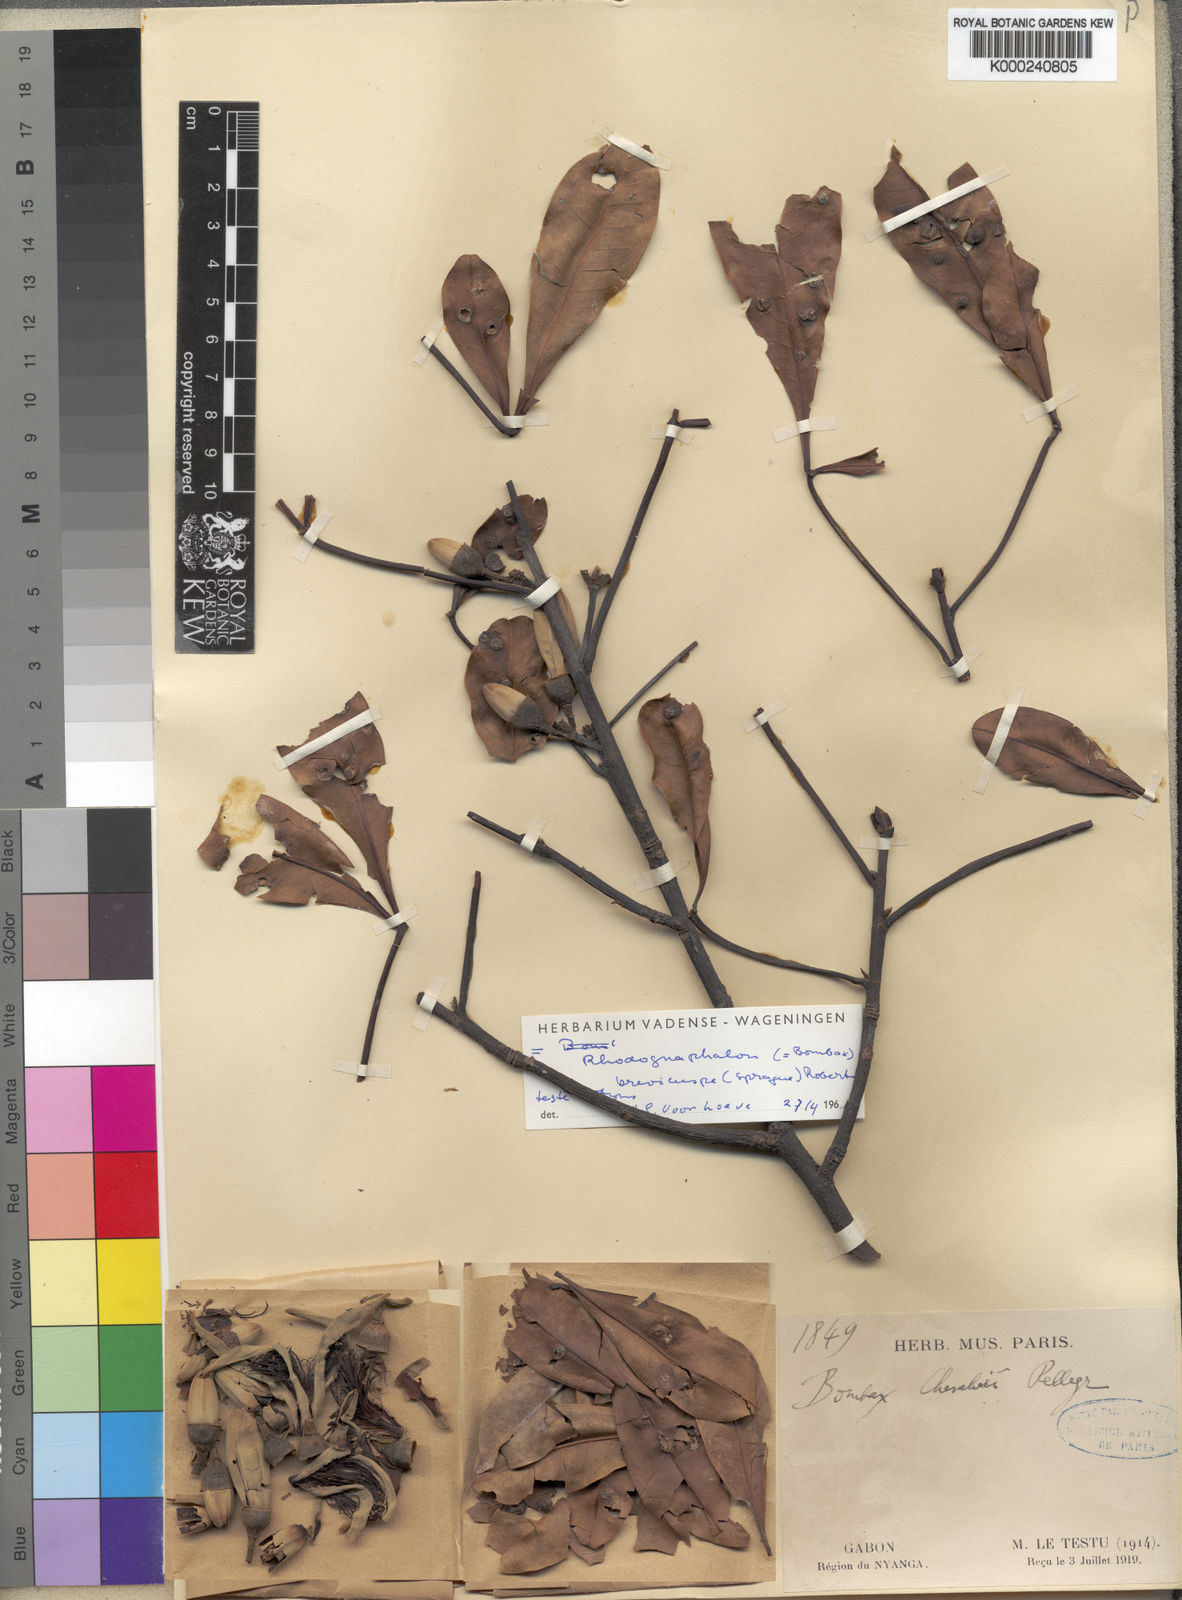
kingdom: Plantae
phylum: Tracheophyta
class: Magnoliopsida
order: Malvales
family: Malvaceae
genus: Rhodognaphalon
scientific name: Rhodognaphalon brevicuspe
